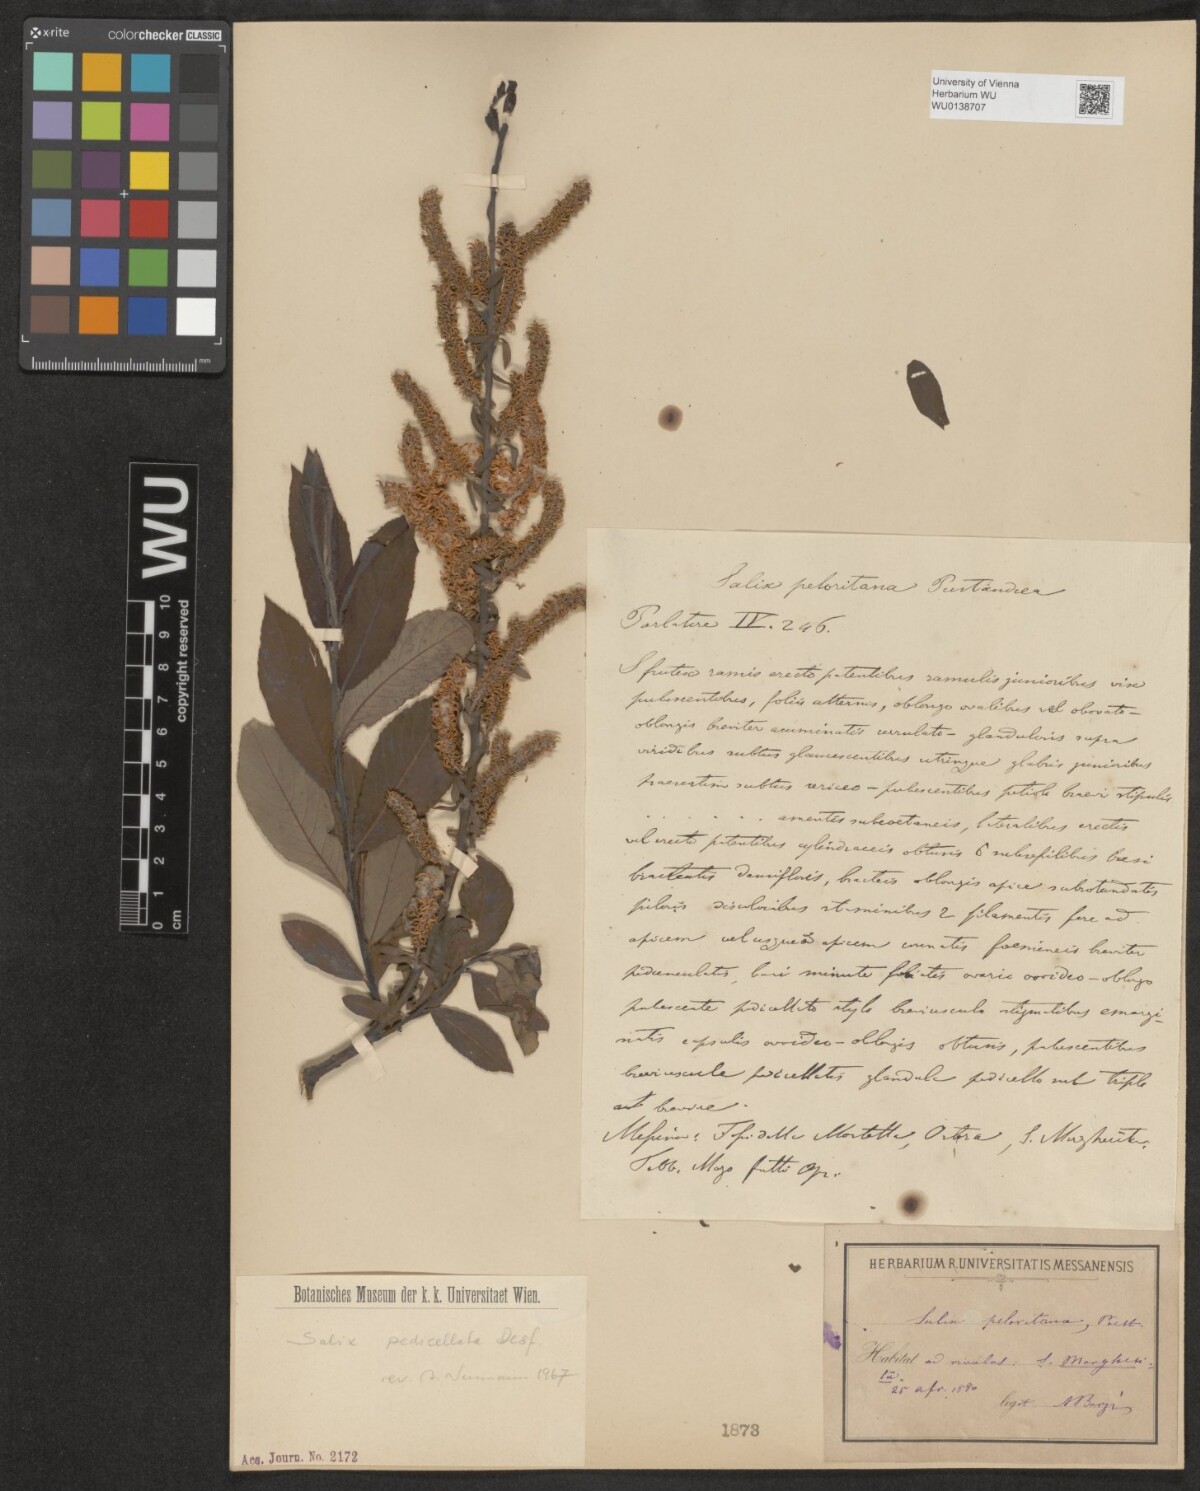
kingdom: Plantae
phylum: Tracheophyta
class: Magnoliopsida
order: Malpighiales
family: Salicaceae
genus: Salix
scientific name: Salix peloritana
